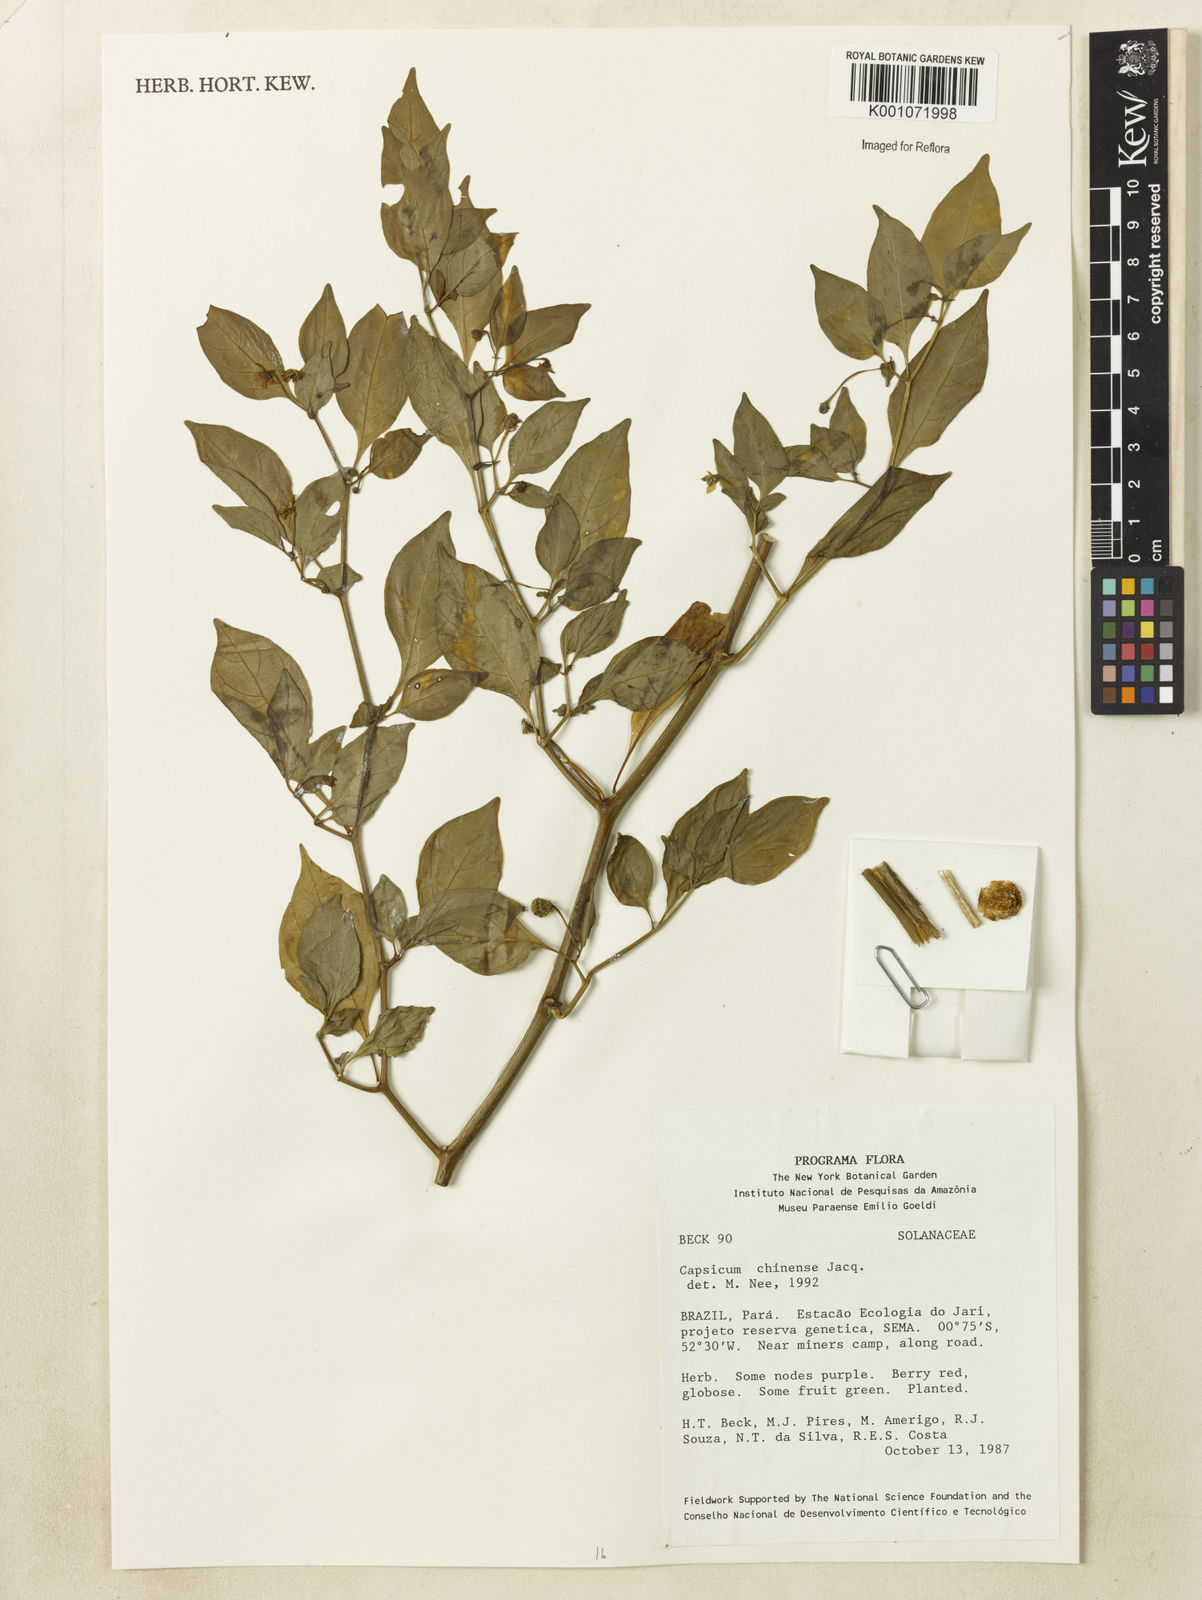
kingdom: Plantae
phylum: Tracheophyta
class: Magnoliopsida
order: Solanales
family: Solanaceae
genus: Capsicum
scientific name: Capsicum chinense
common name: Yellow squash pepper
